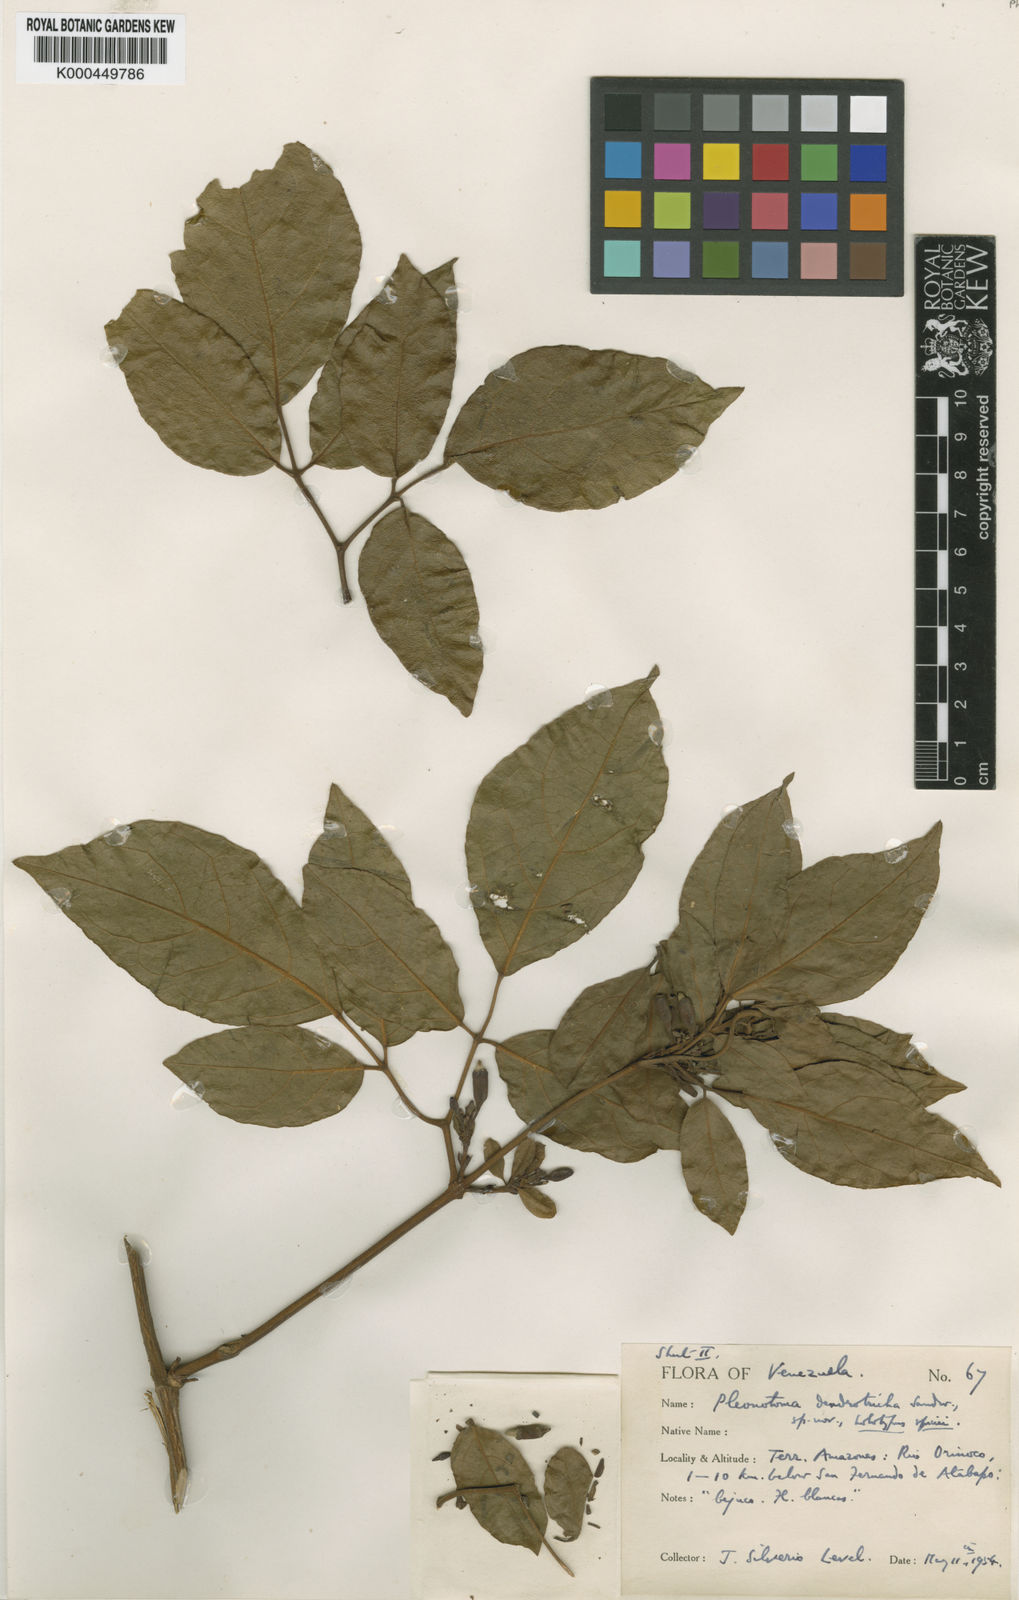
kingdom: Plantae
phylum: Tracheophyta
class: Magnoliopsida
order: Lamiales
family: Bignoniaceae
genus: Pleonotoma
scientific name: Pleonotoma dendrotricha
